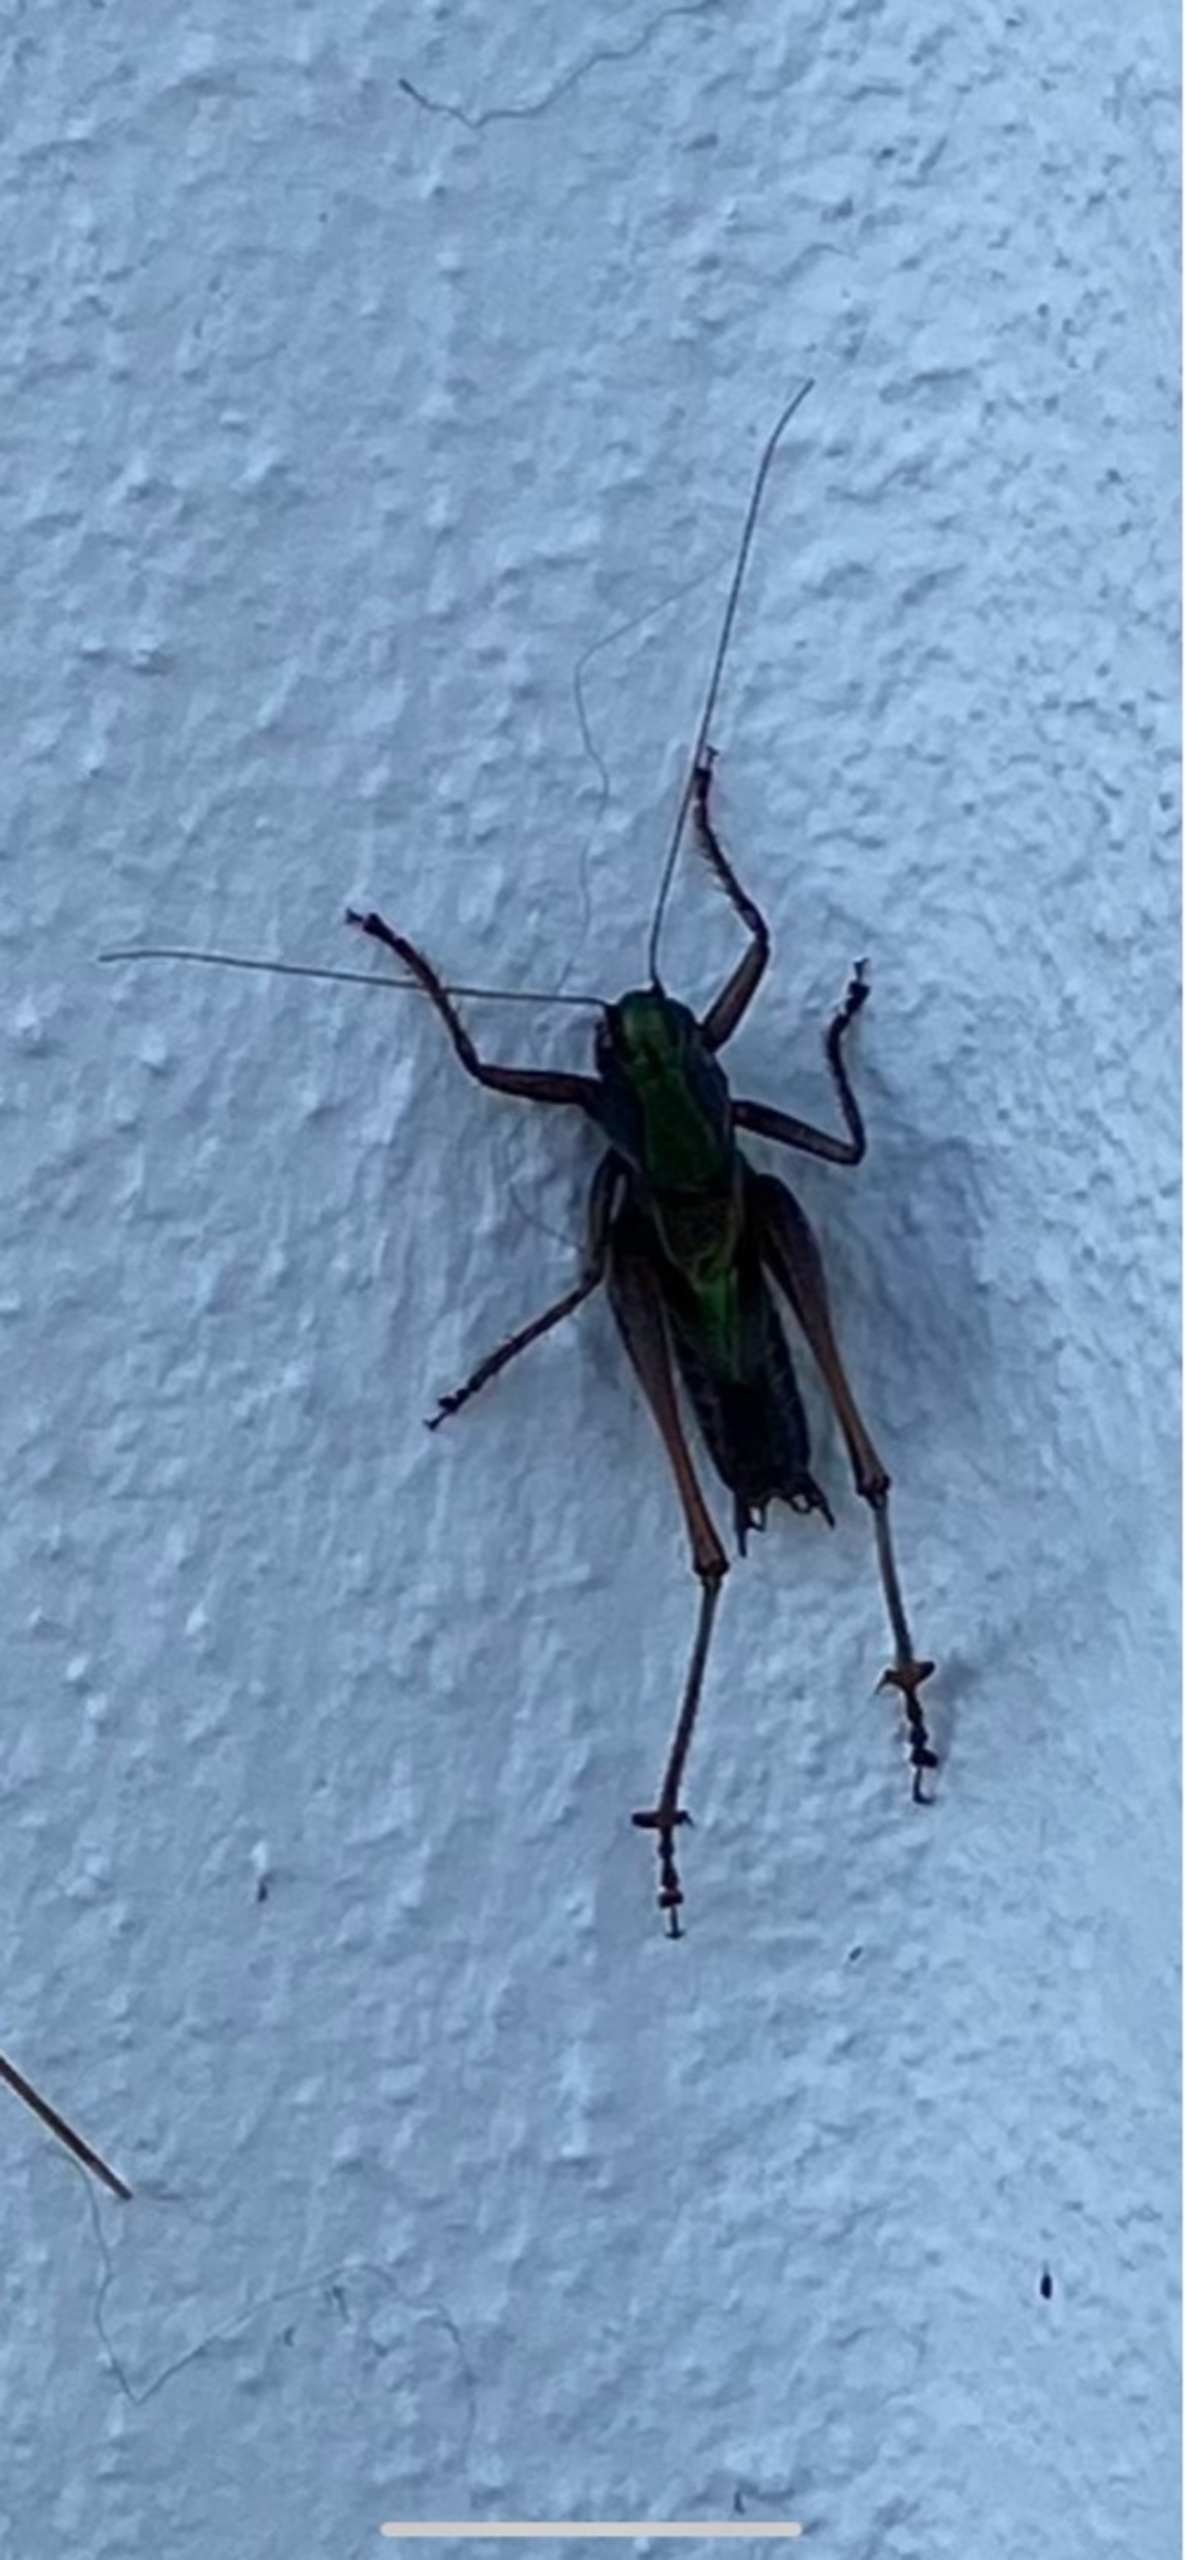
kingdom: Animalia
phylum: Arthropoda
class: Insecta
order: Orthoptera
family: Tettigoniidae
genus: Metrioptera
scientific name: Metrioptera brachyptera
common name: Hedegræshoppe
